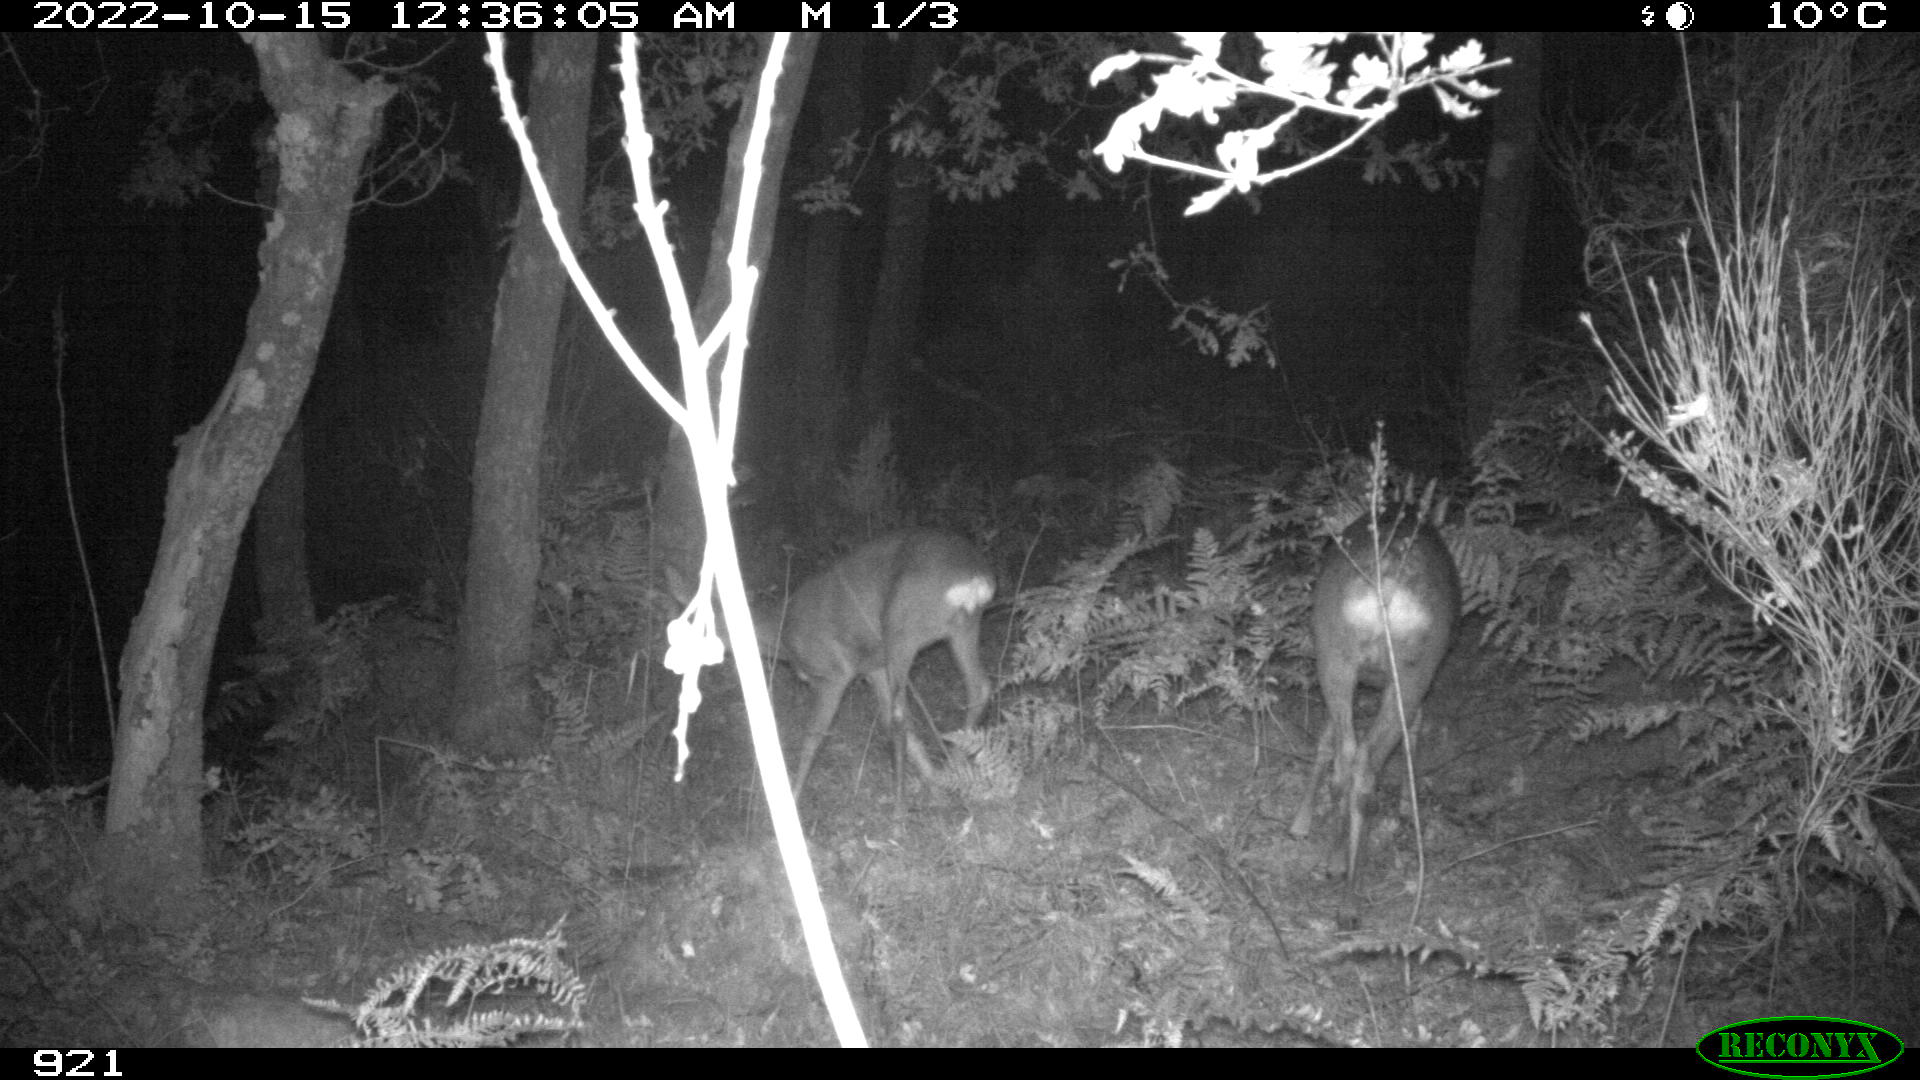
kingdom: Animalia
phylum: Chordata
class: Mammalia
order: Artiodactyla
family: Cervidae
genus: Capreolus
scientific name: Capreolus capreolus
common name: Western roe deer
